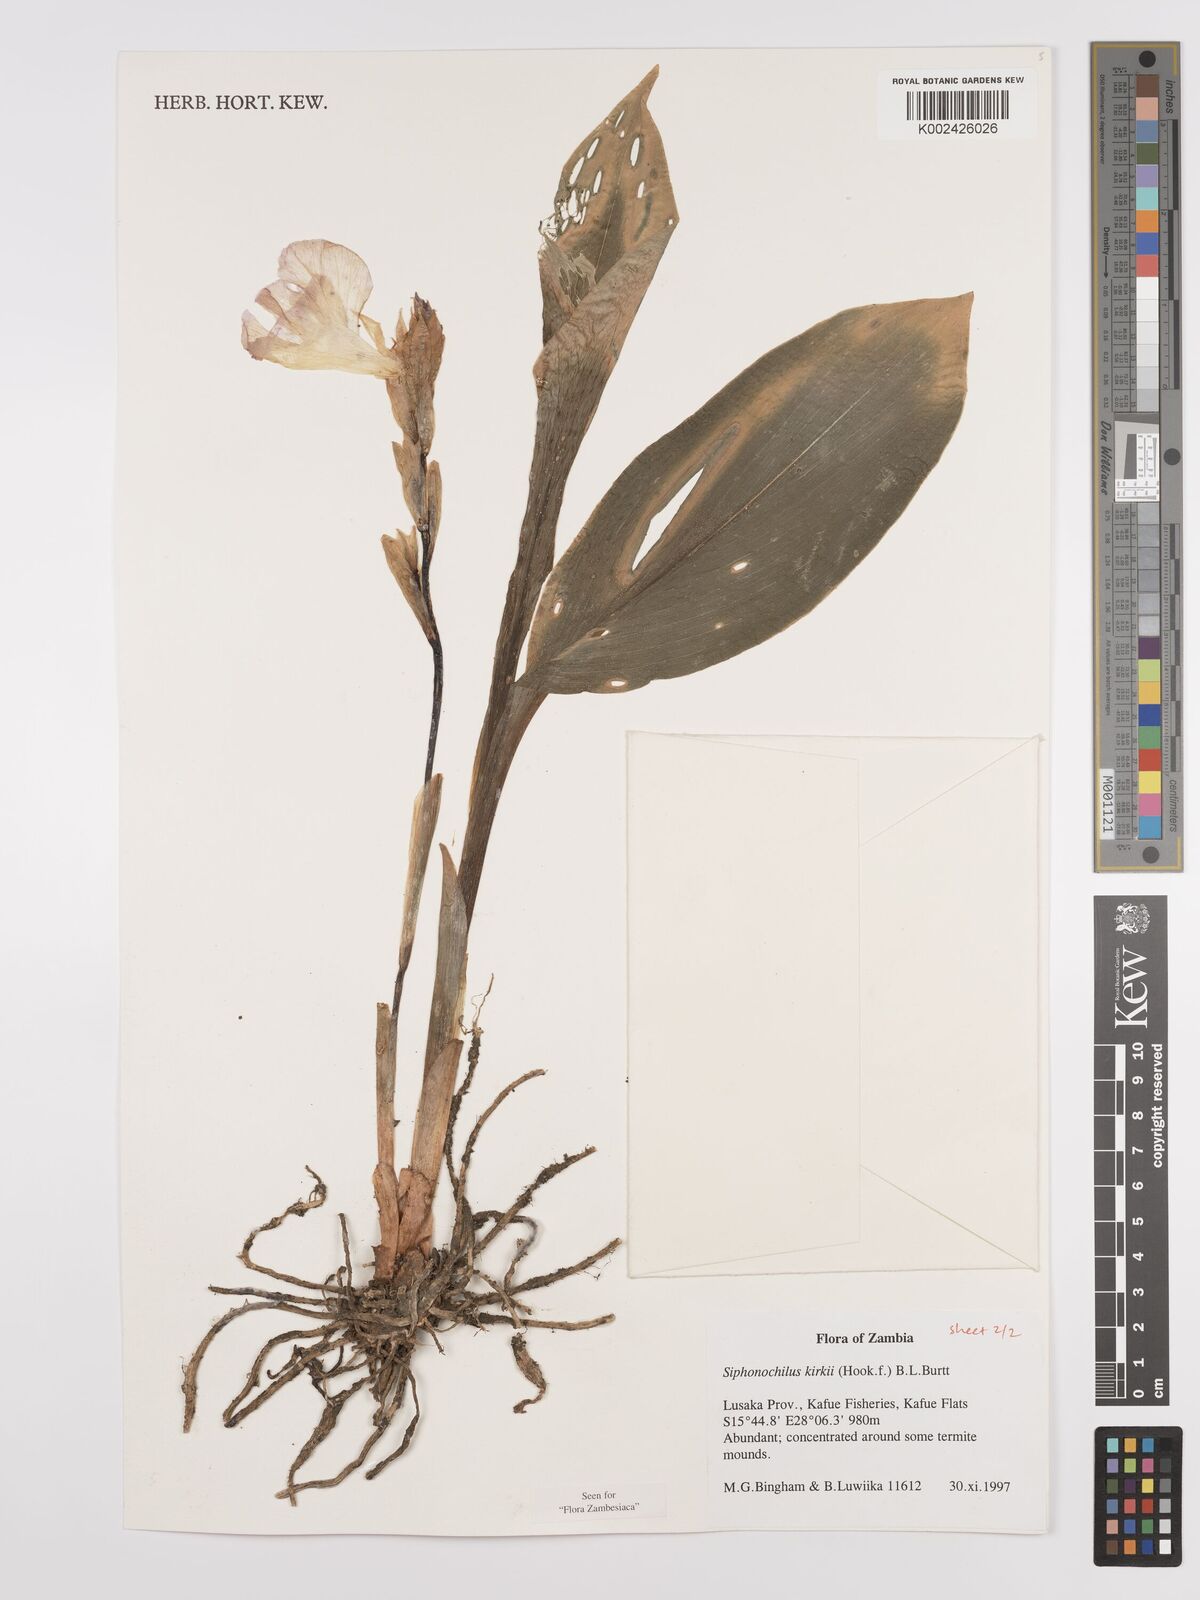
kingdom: Plantae
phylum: Tracheophyta
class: Liliopsida
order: Zingiberales
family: Zingiberaceae
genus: Siphonochilus
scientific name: Siphonochilus kirkii
